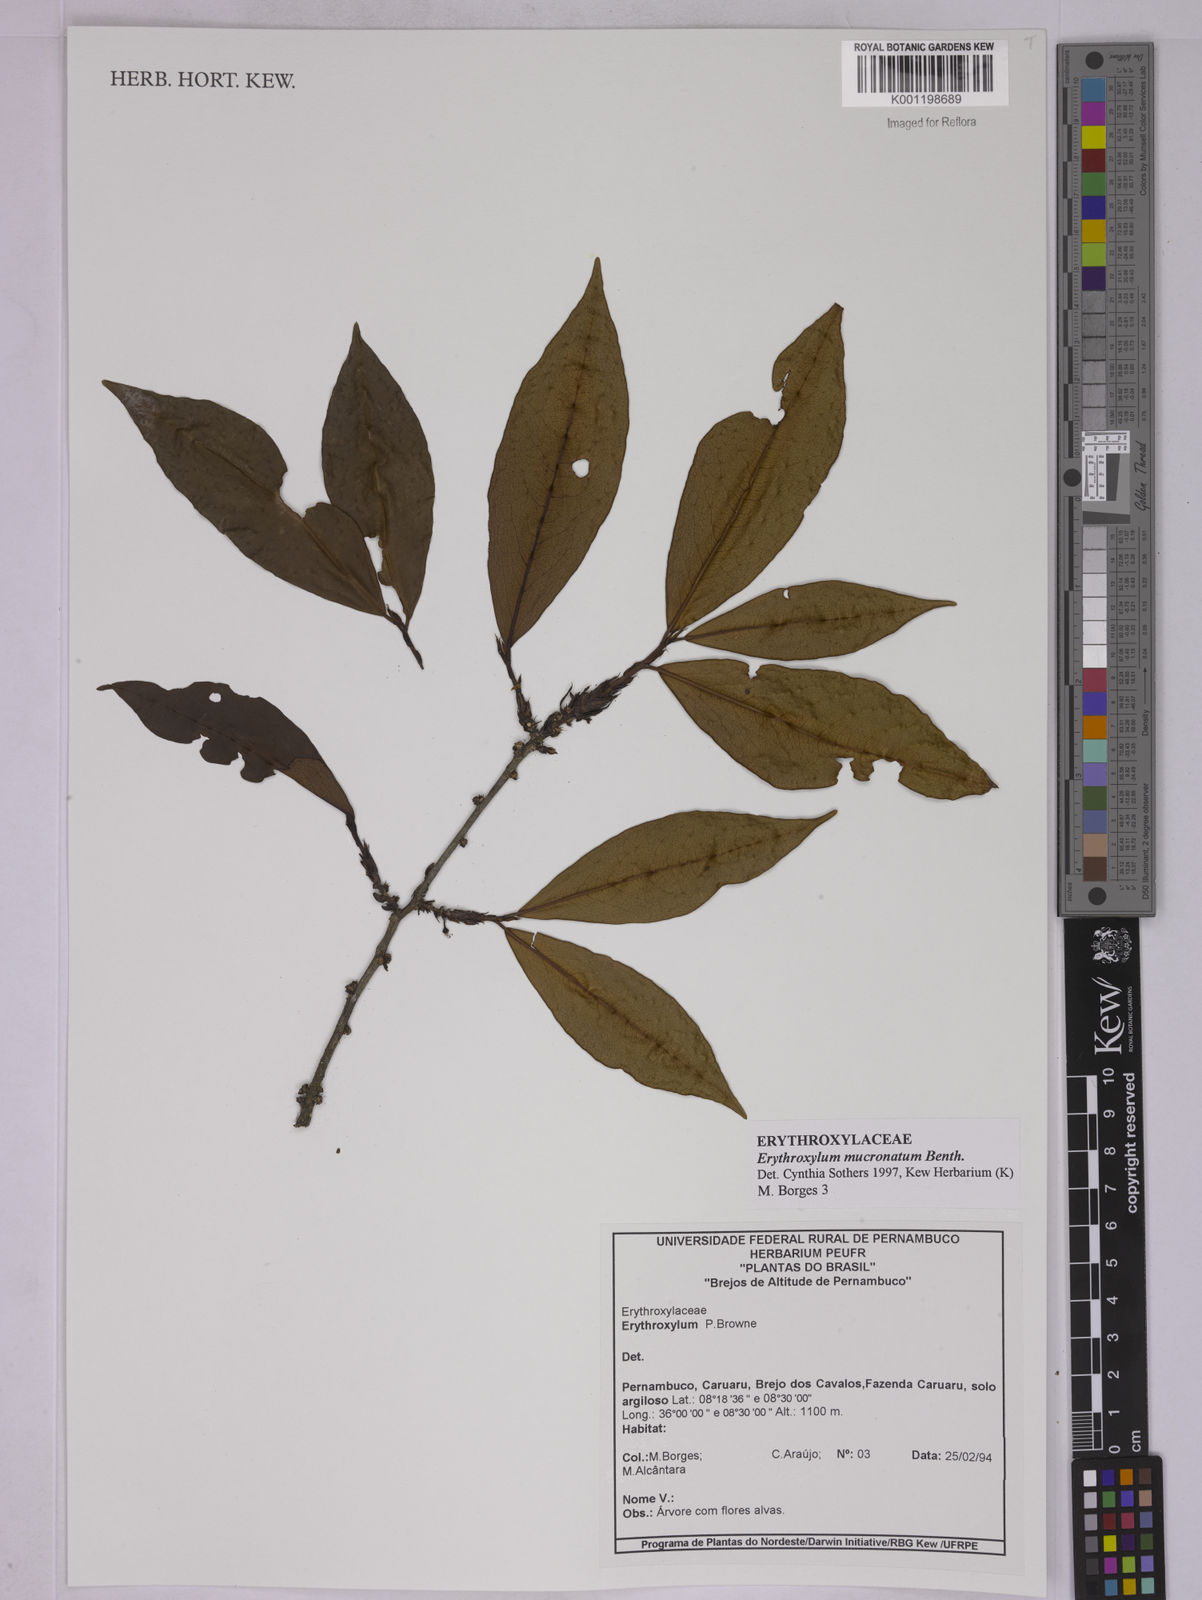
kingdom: Plantae
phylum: Tracheophyta
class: Magnoliopsida
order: Malpighiales
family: Erythroxylaceae
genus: Erythroxylum
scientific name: Erythroxylum mucronatum
